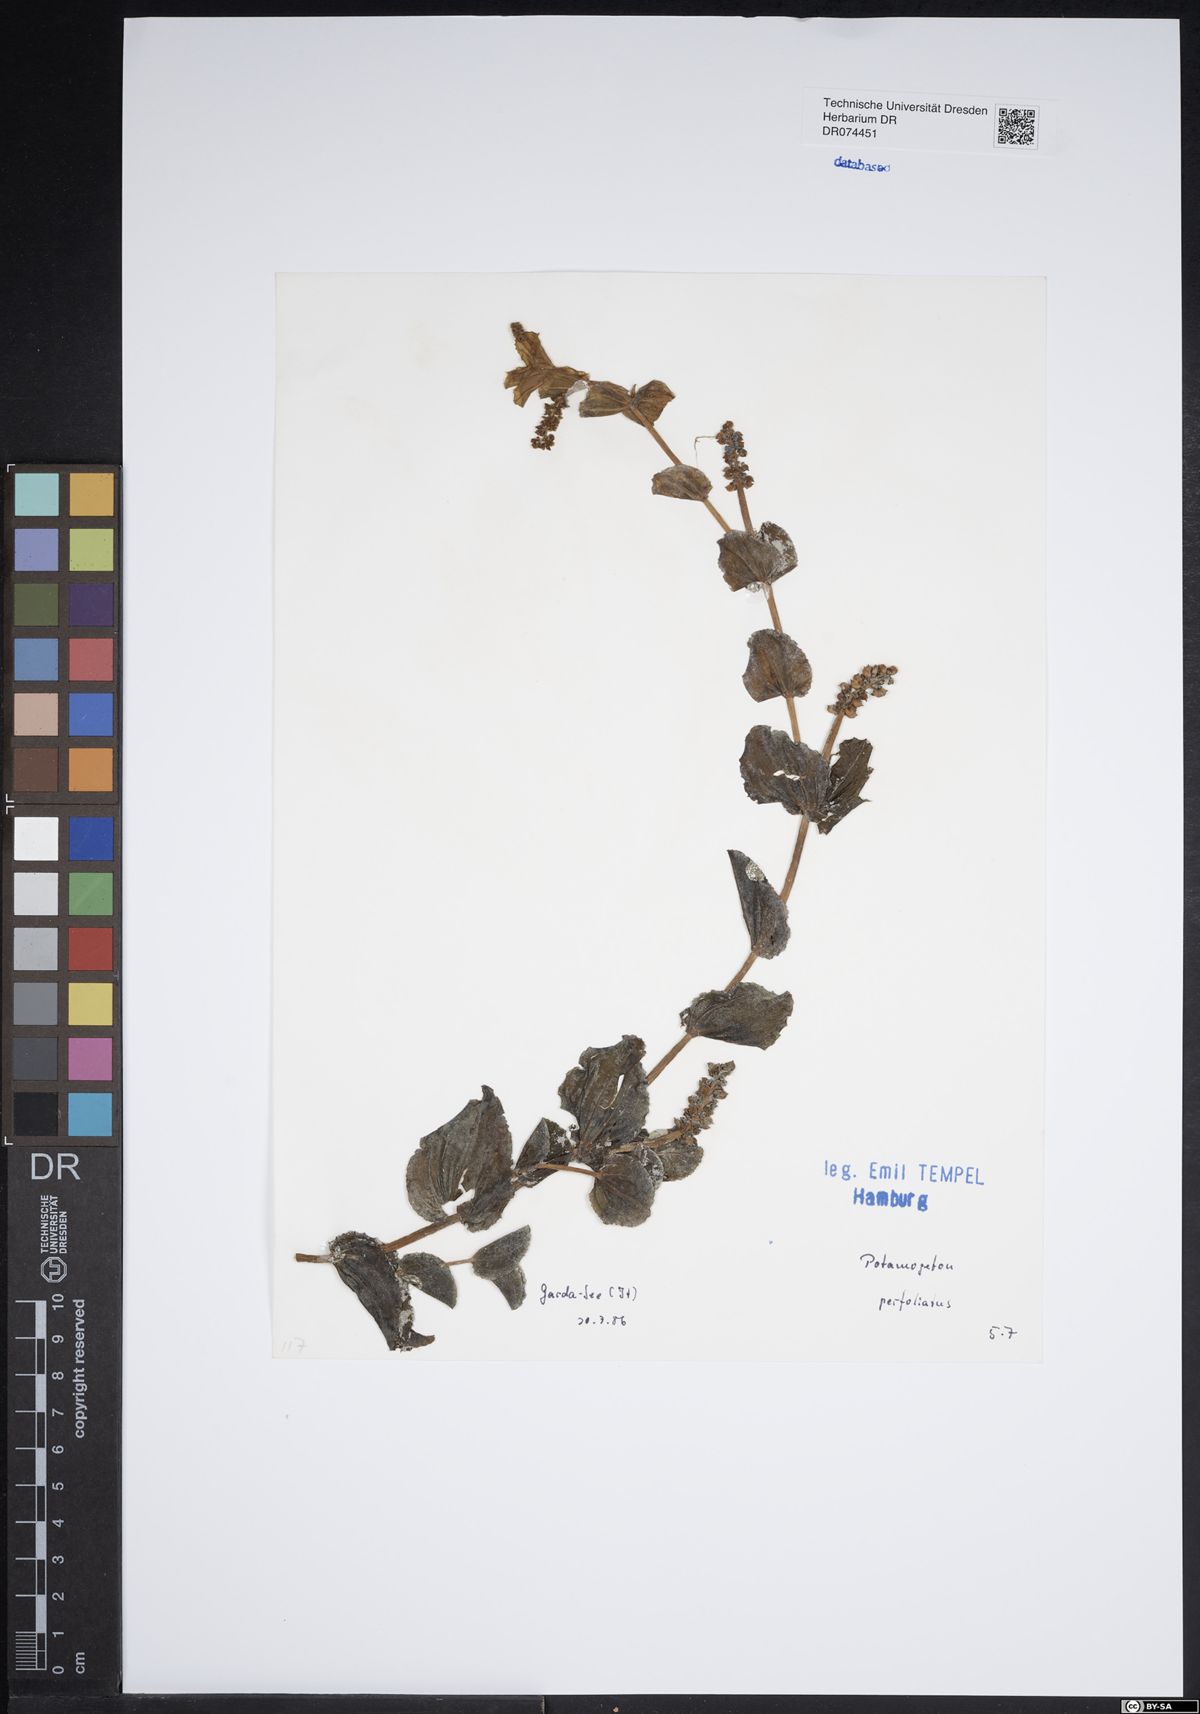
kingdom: Plantae
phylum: Tracheophyta
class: Liliopsida
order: Alismatales
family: Potamogetonaceae
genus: Potamogeton
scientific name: Potamogeton perfoliatus
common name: Perfoliate pondweed
